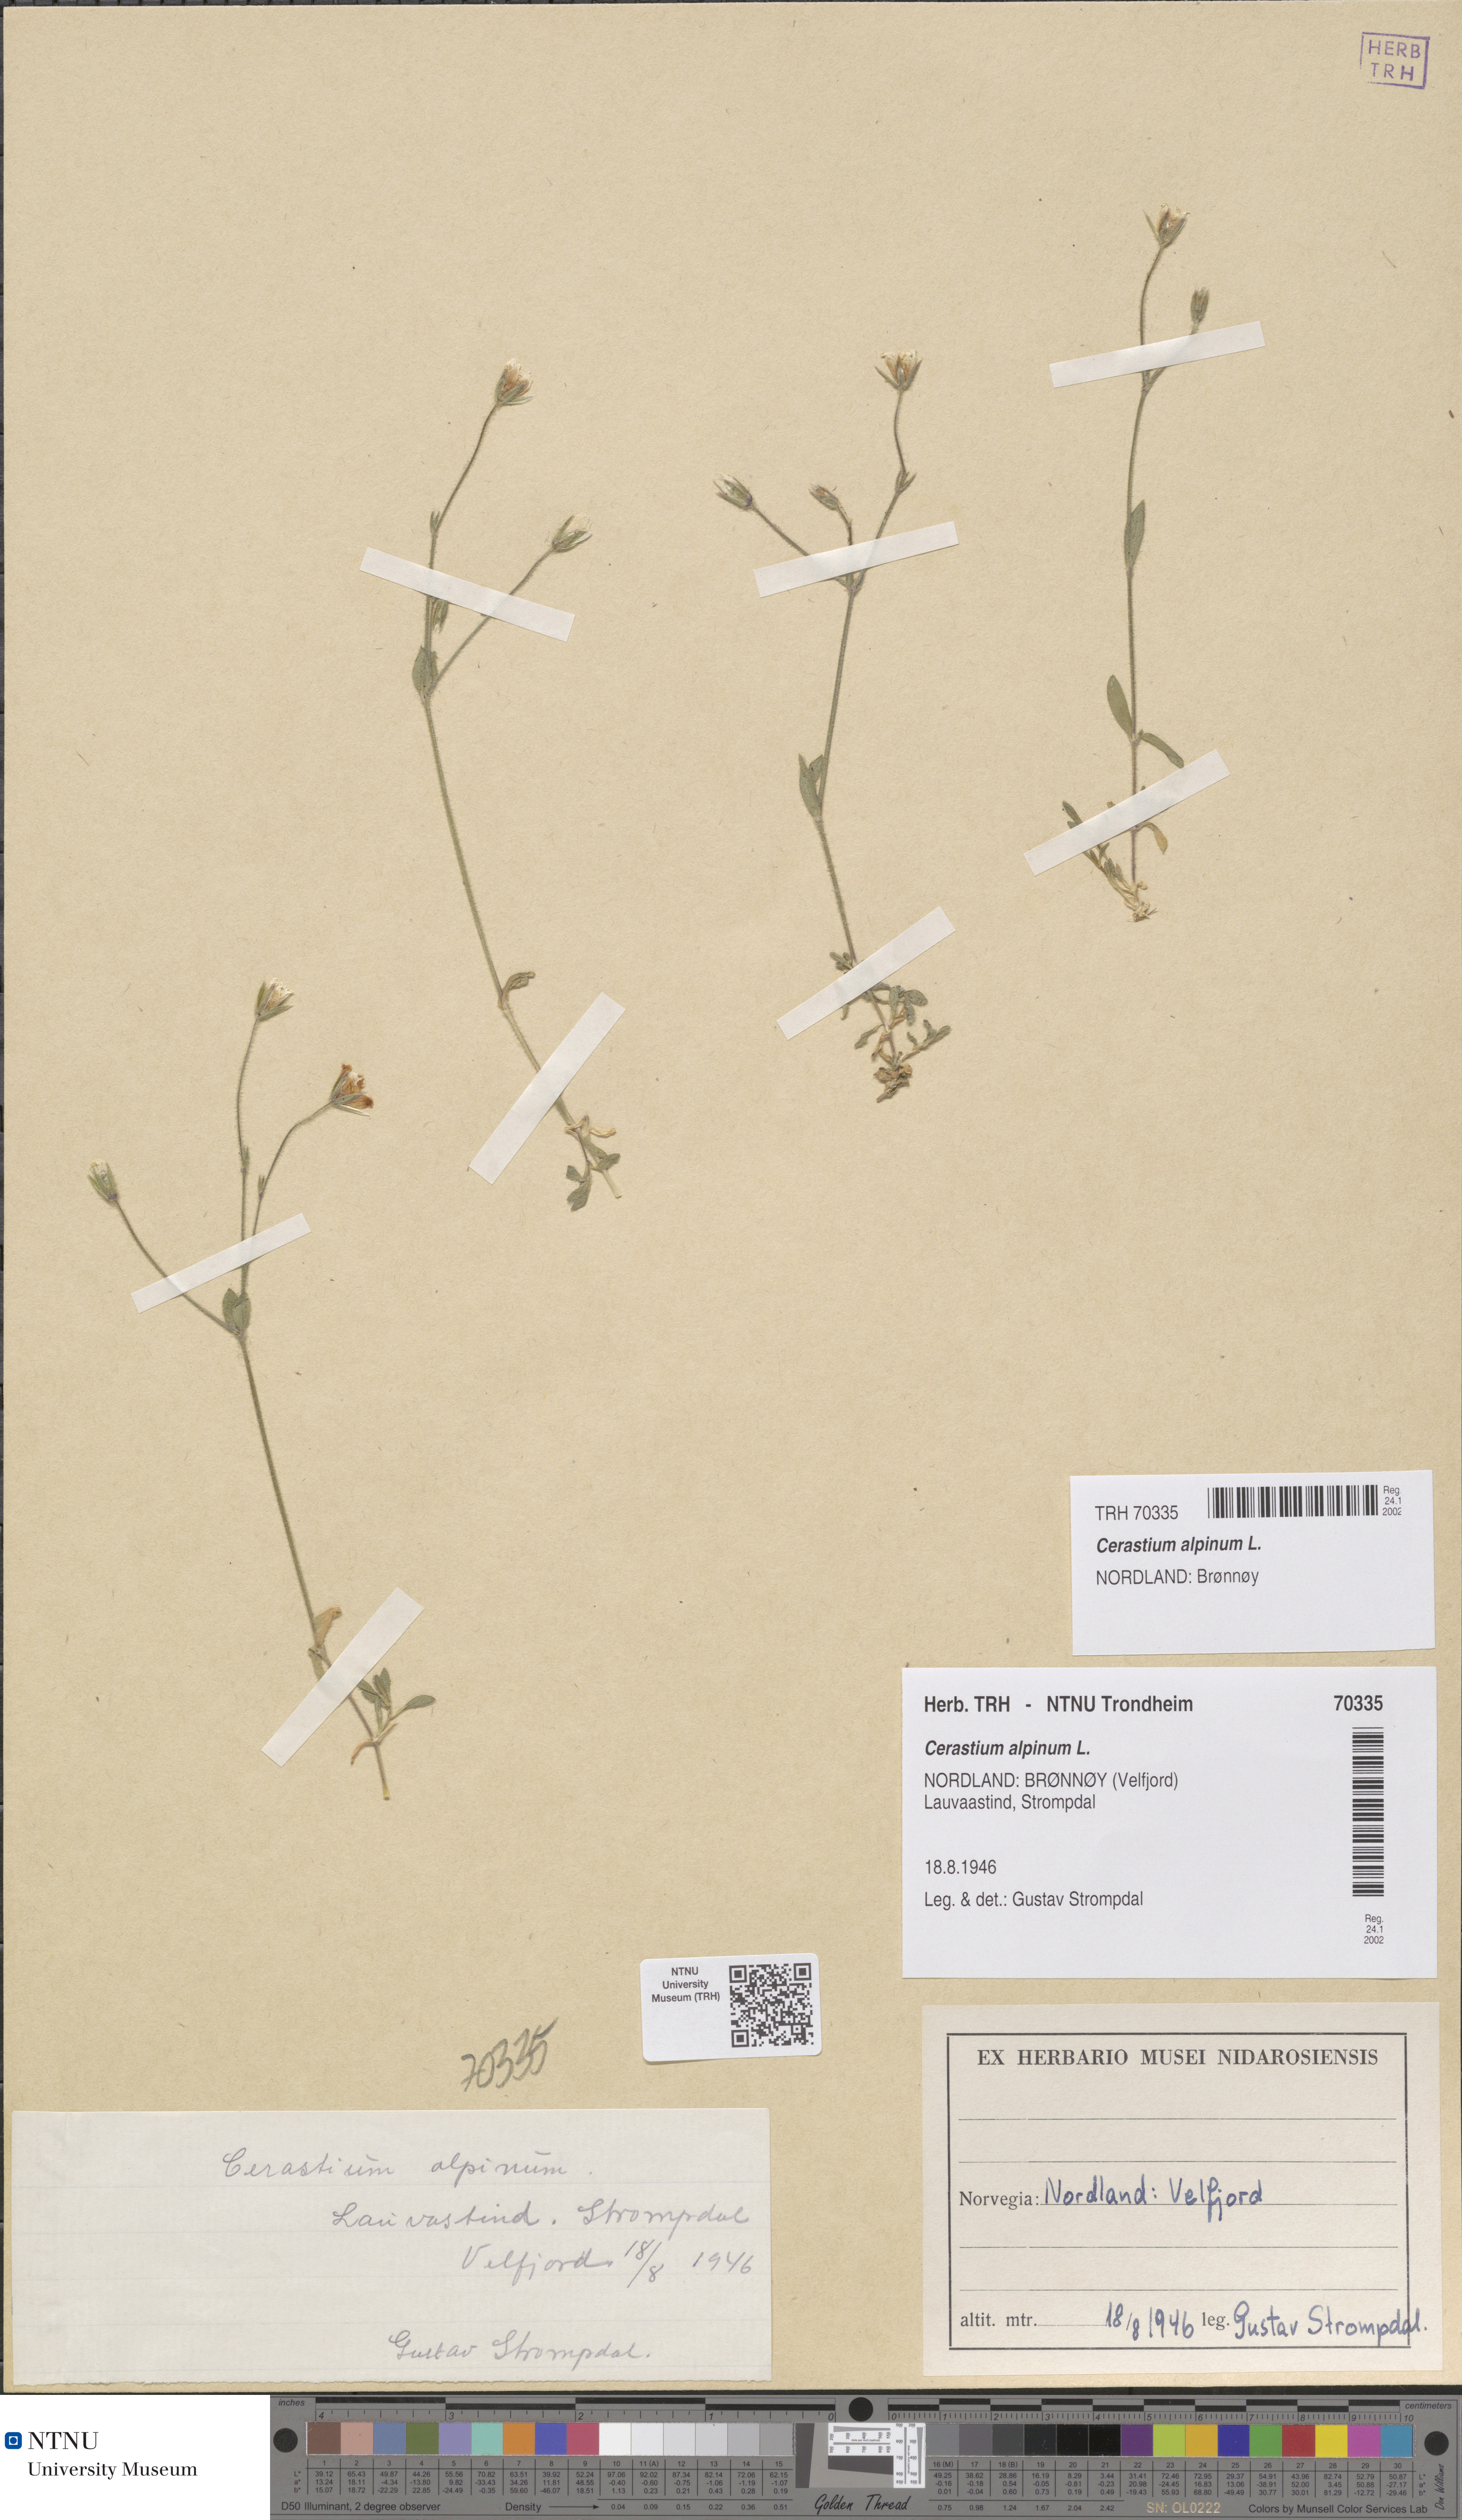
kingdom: Plantae
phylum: Tracheophyta
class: Magnoliopsida
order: Caryophyllales
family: Caryophyllaceae
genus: Cerastium
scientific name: Cerastium alpinum
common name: Alpine mouse-ear
